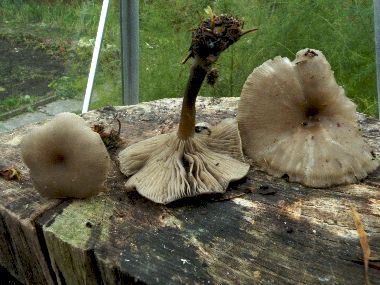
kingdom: Fungi
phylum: Basidiomycota
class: Agaricomycetes
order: Agaricales
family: Tricholomataceae
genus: Clitocybe
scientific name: Clitocybe vibecina
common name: randstribet tragthat
